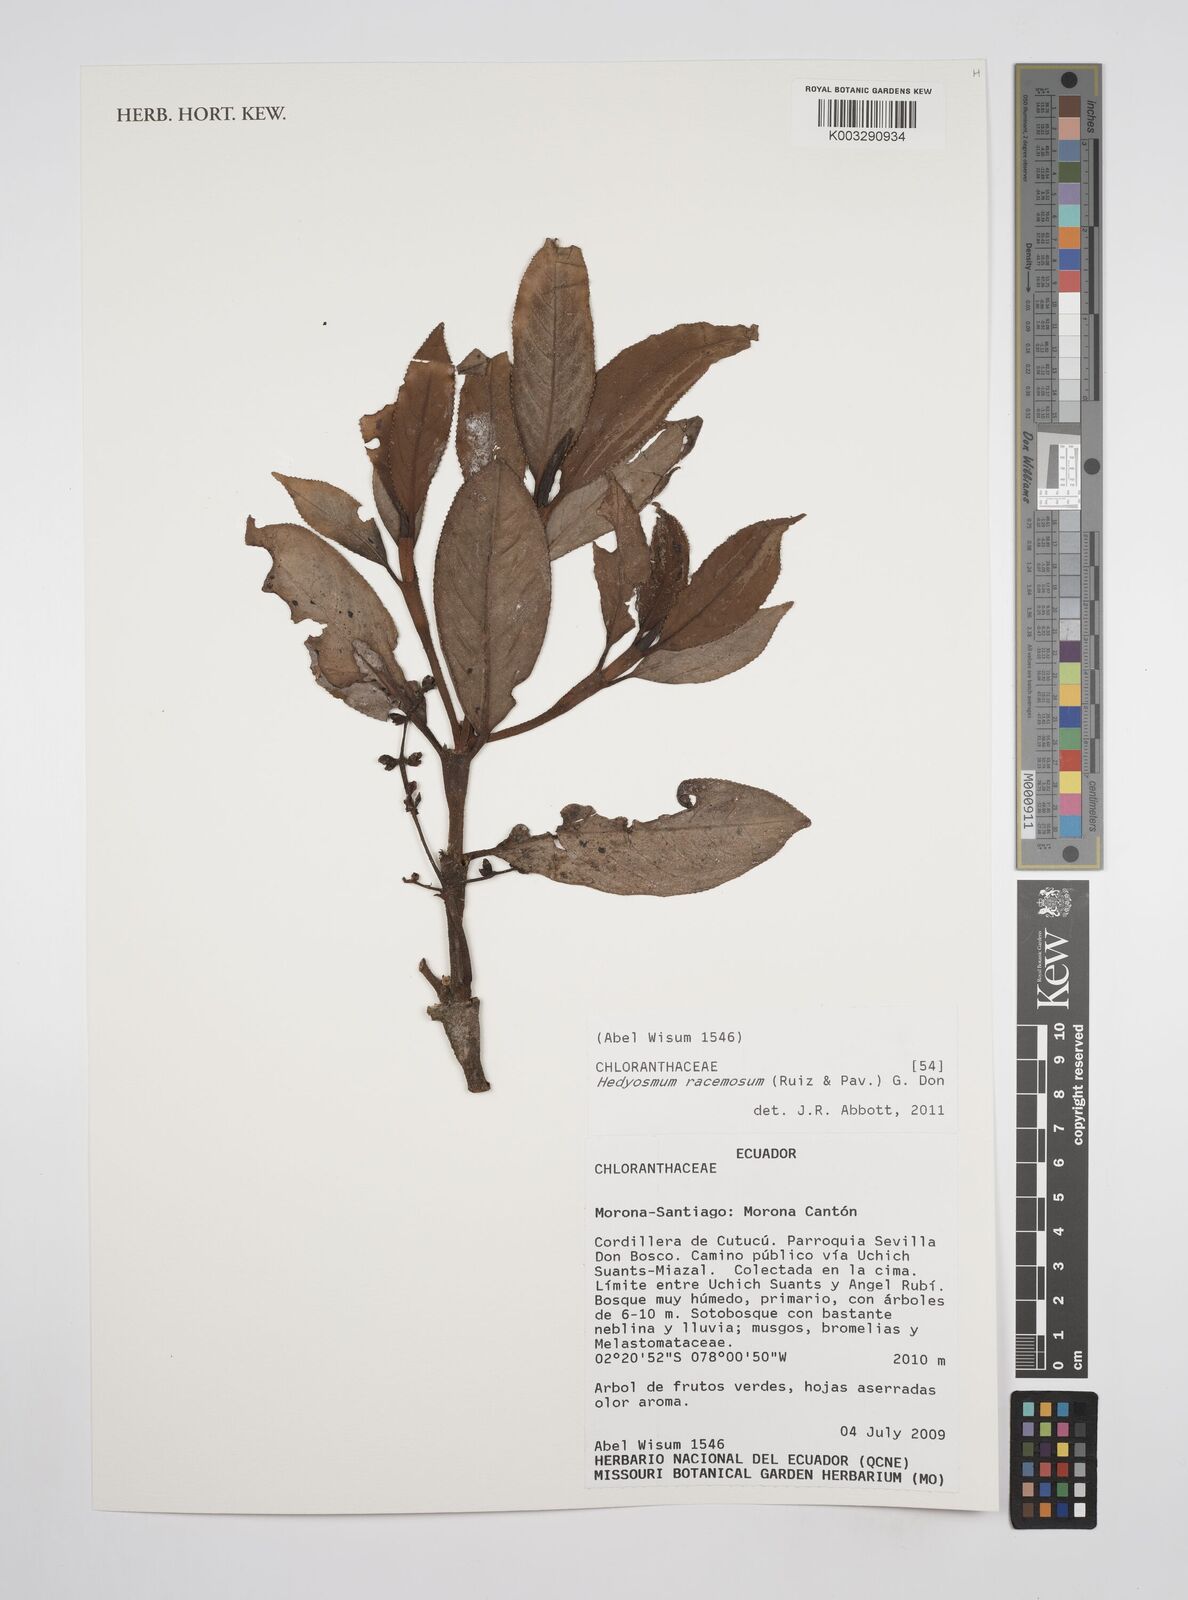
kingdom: Plantae
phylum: Tracheophyta
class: Magnoliopsida
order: Chloranthales
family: Chloranthaceae
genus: Hedyosmum
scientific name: Hedyosmum racemosum
